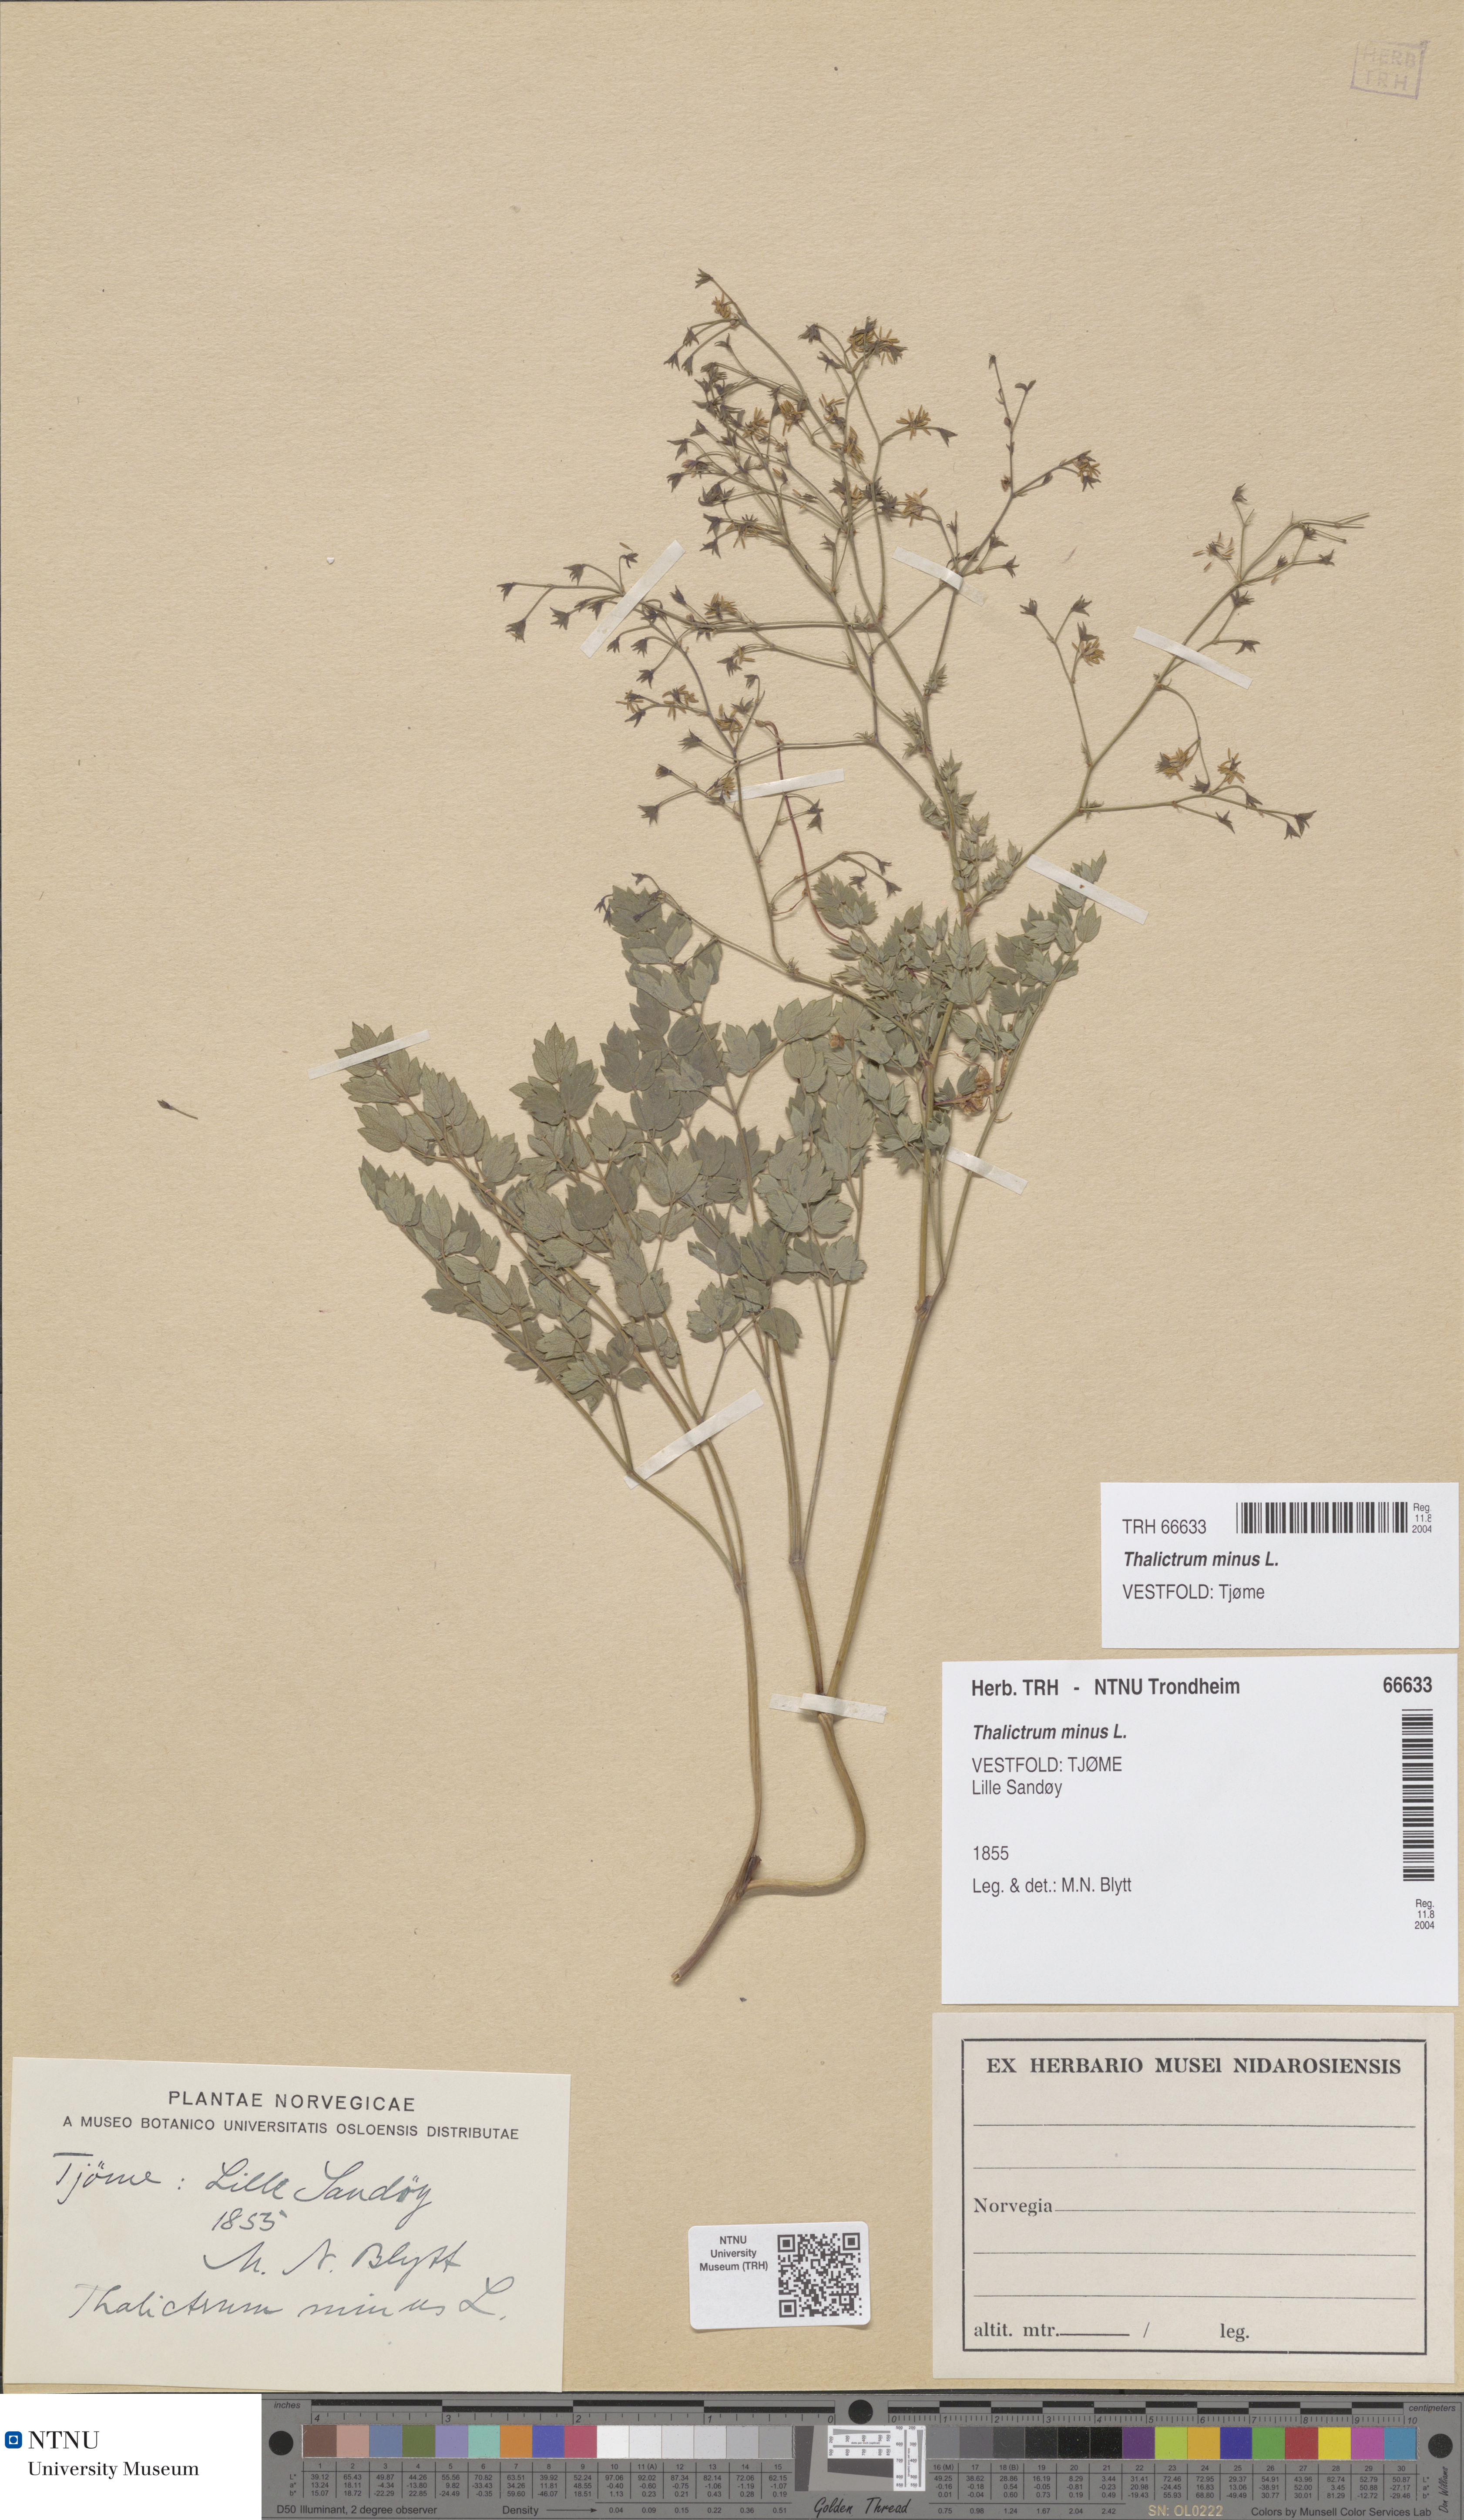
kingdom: Plantae
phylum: Tracheophyta
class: Magnoliopsida
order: Ranunculales
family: Ranunculaceae
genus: Thalictrum
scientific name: Thalictrum minus
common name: Lesser meadow-rue
